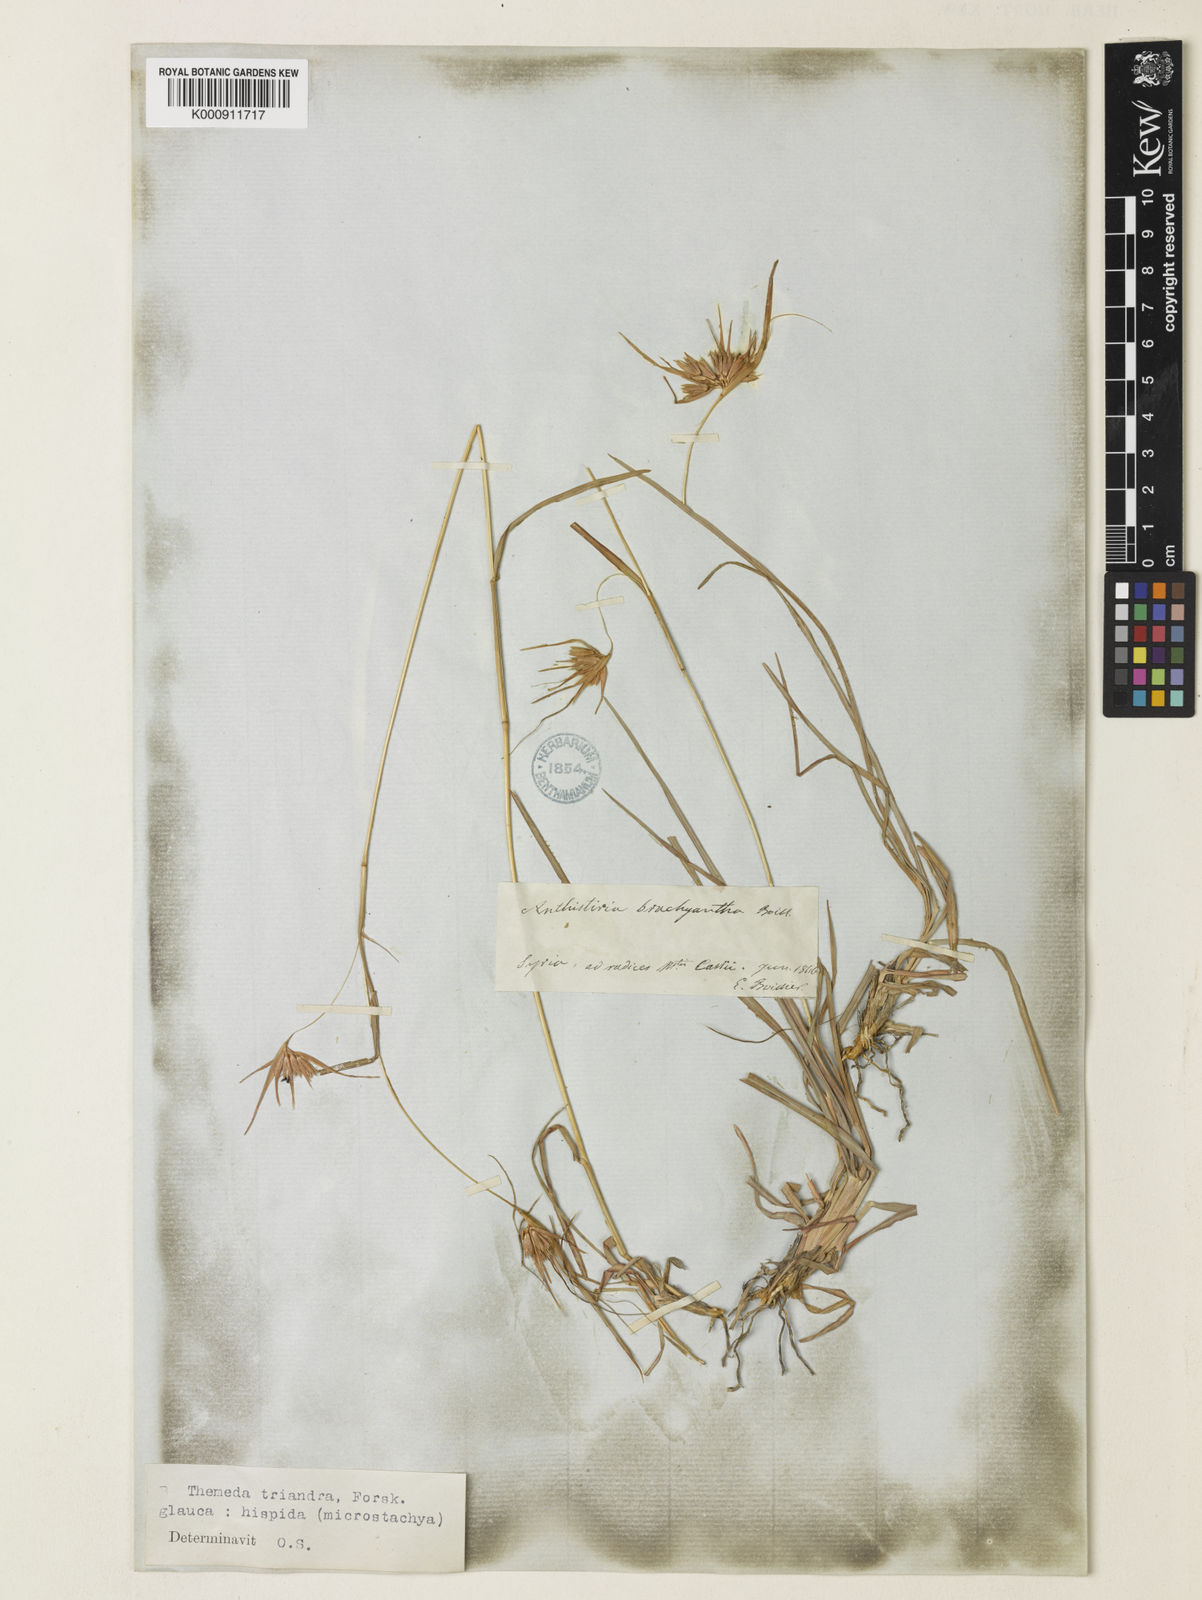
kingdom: Plantae
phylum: Tracheophyta
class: Liliopsida
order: Poales
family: Poaceae
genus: Themeda
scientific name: Themeda triandra
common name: Kangaroo grass
